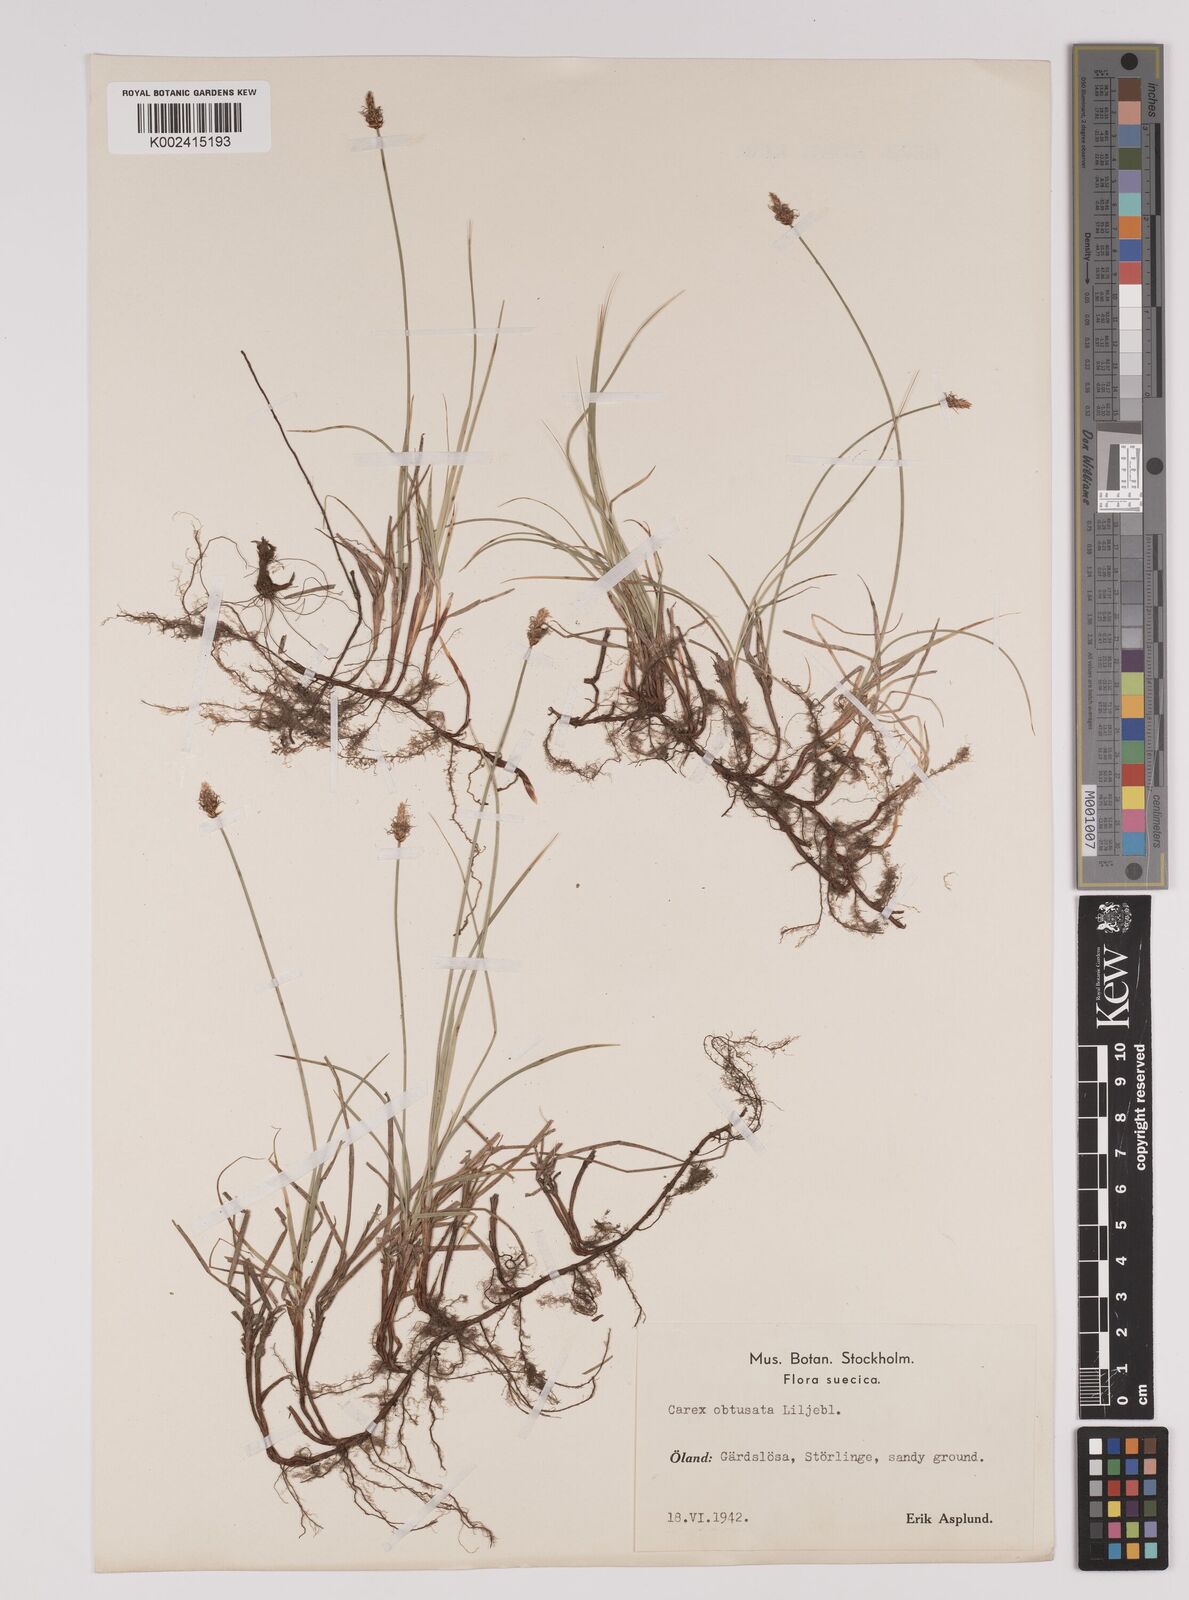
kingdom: Plantae
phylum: Tracheophyta
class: Liliopsida
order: Poales
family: Cyperaceae
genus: Carex
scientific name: Carex obtusata
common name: Blunt sedge
